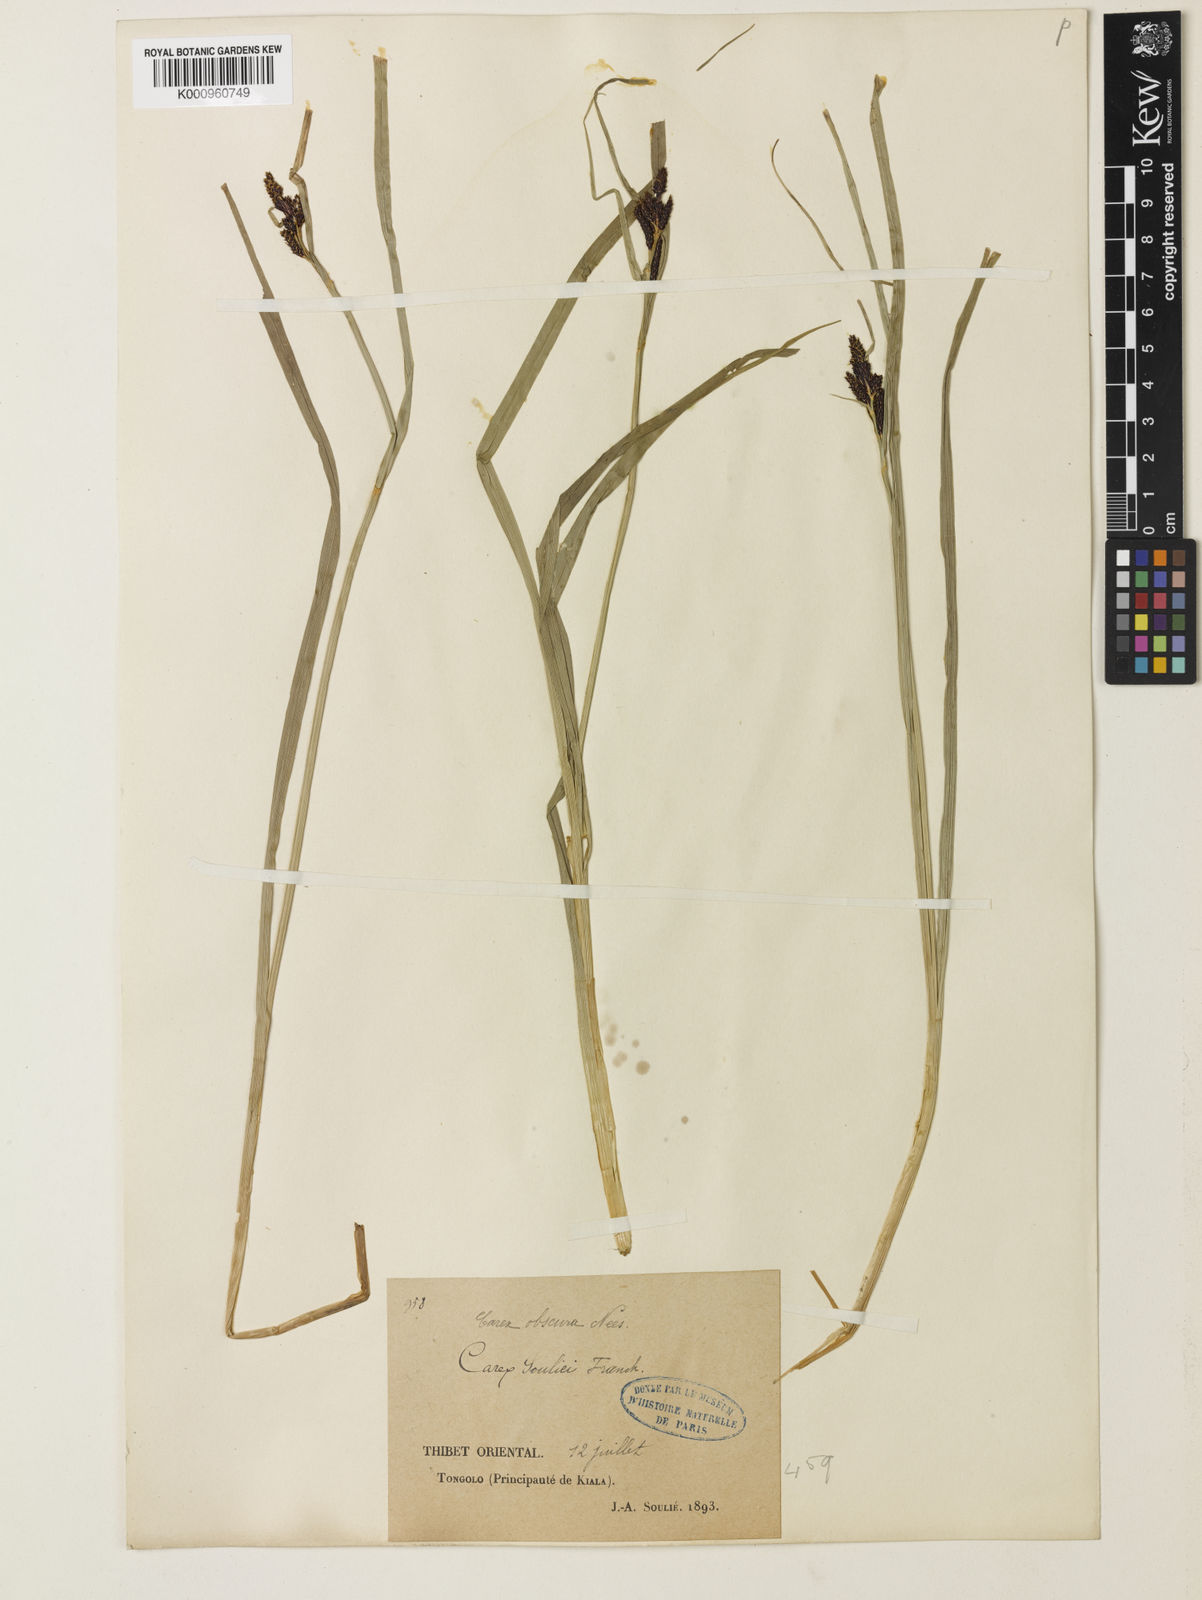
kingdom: Plantae
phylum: Tracheophyta
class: Liliopsida
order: Poales
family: Cyperaceae
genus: Carex
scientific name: Carex obscura
